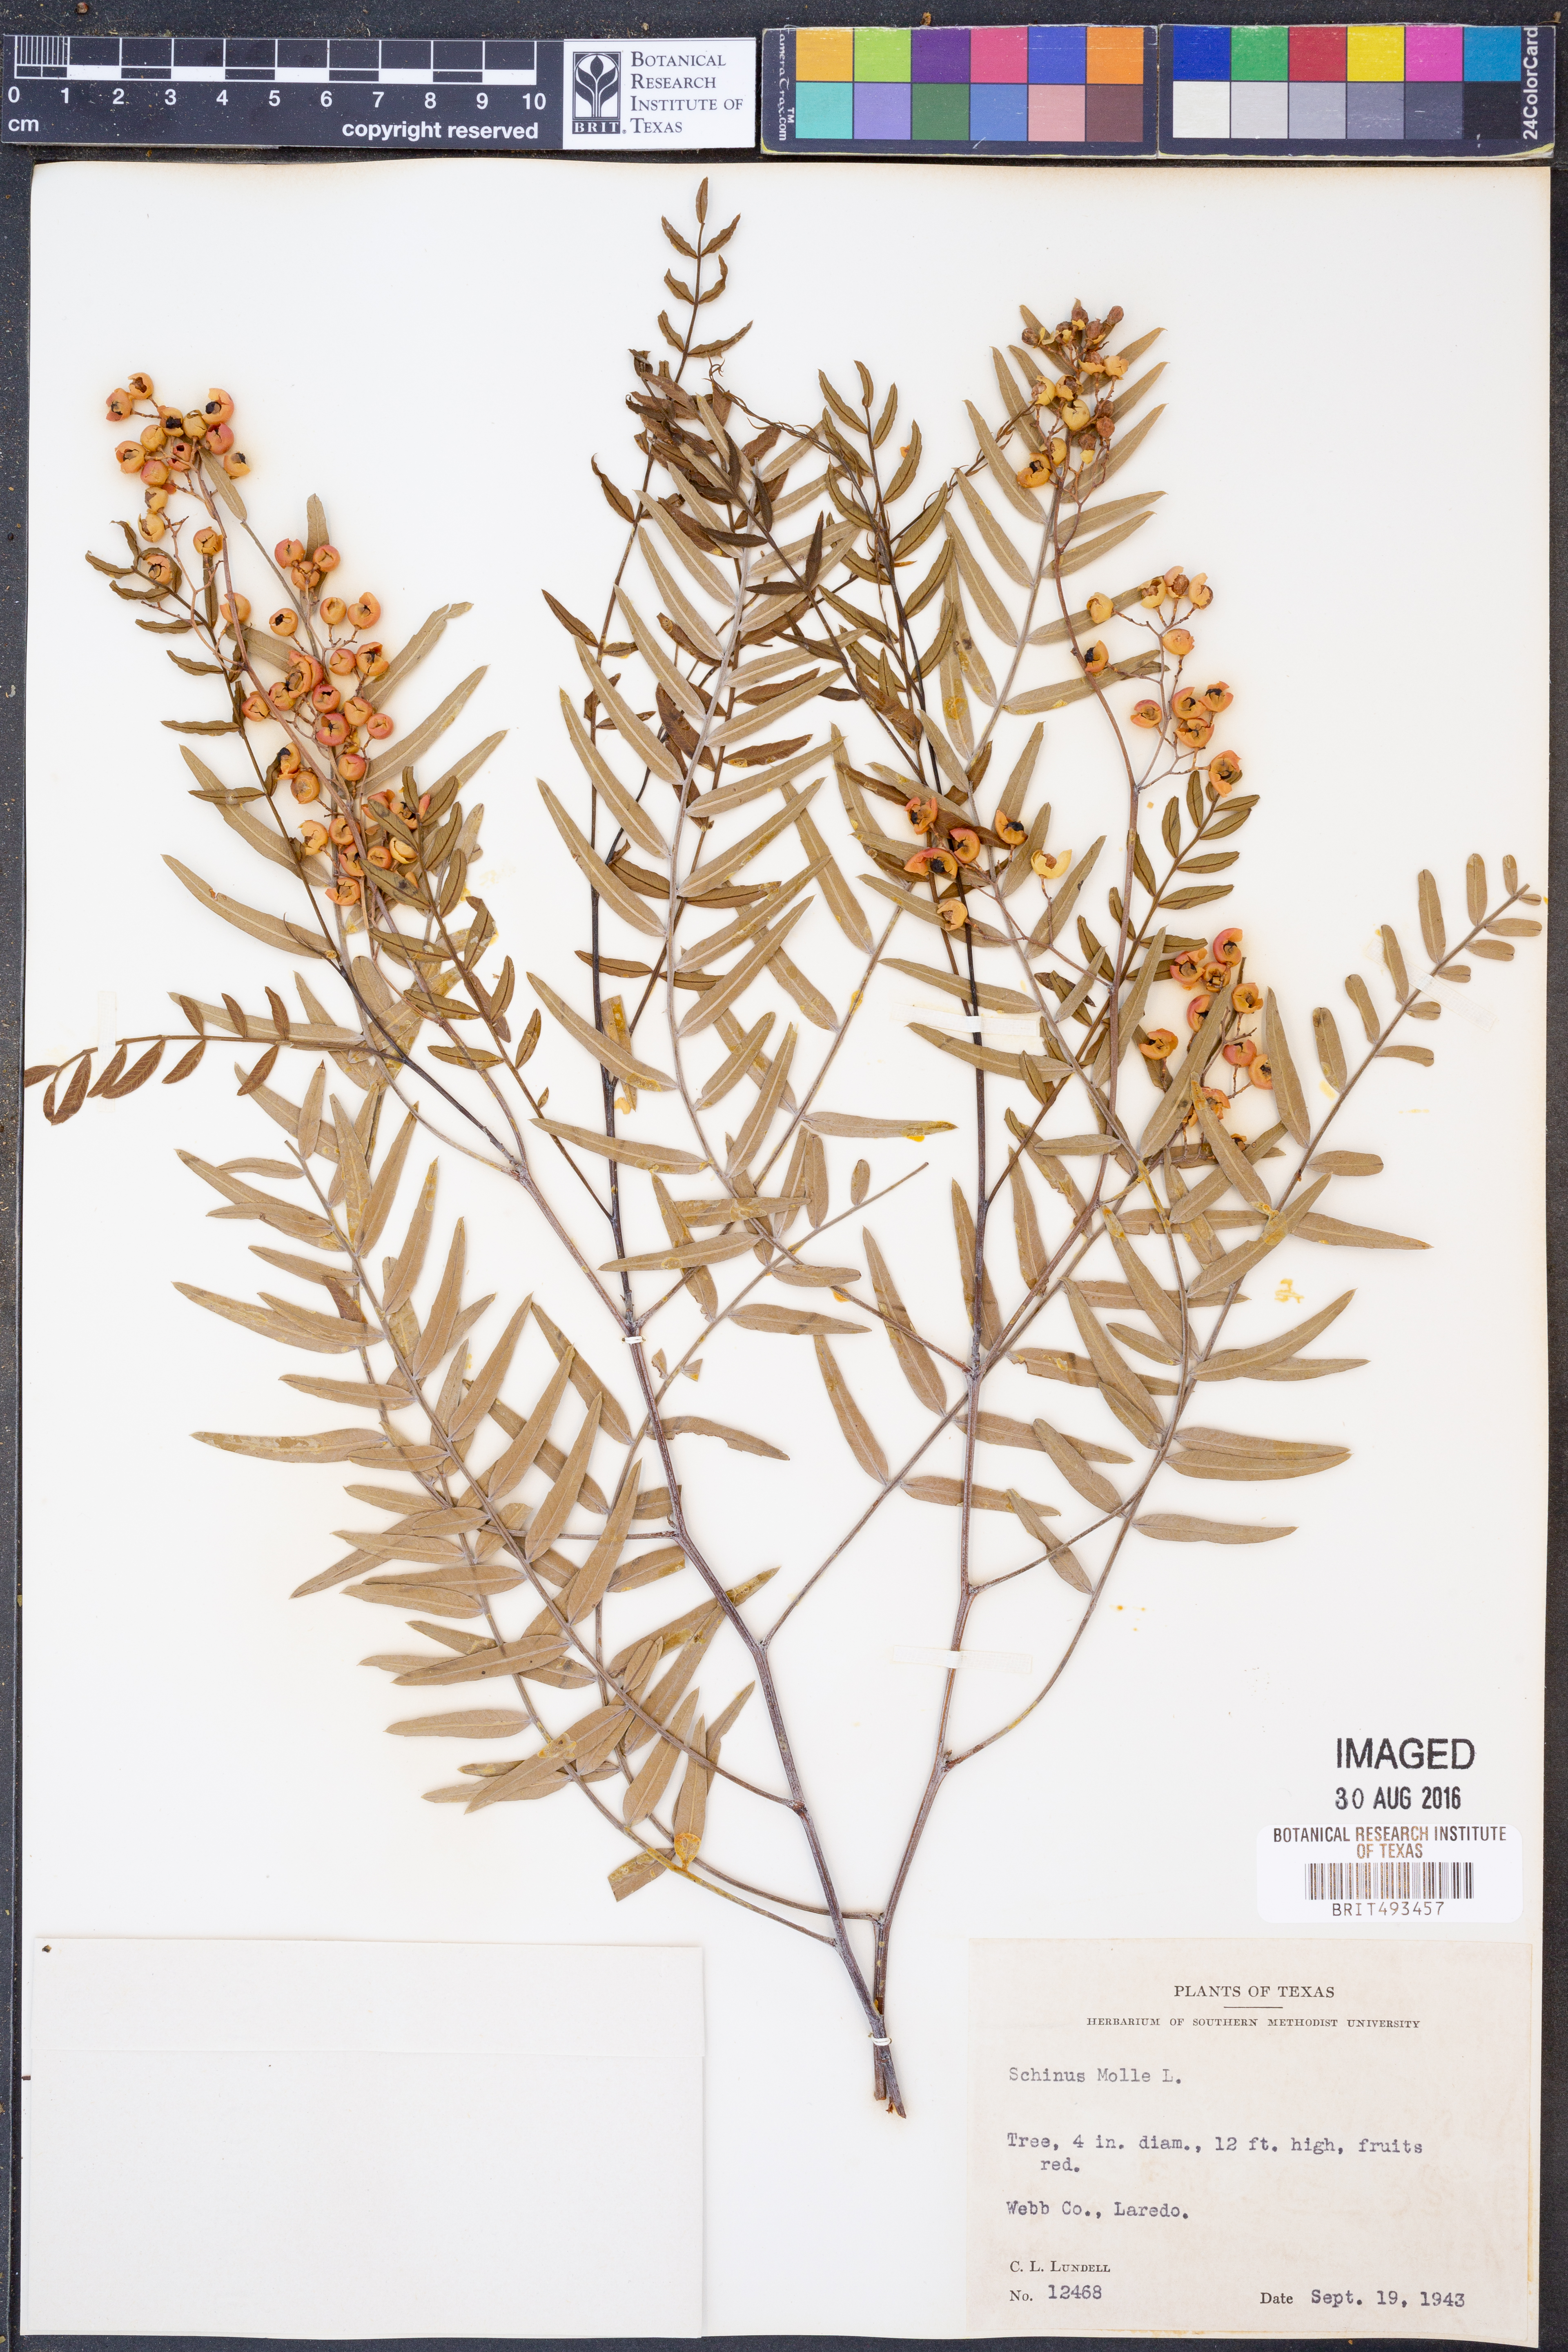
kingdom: Plantae
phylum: Tracheophyta
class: Magnoliopsida
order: Sapindales
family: Anacardiaceae
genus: Schinus
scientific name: Schinus molle
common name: Peruvian peppertree
